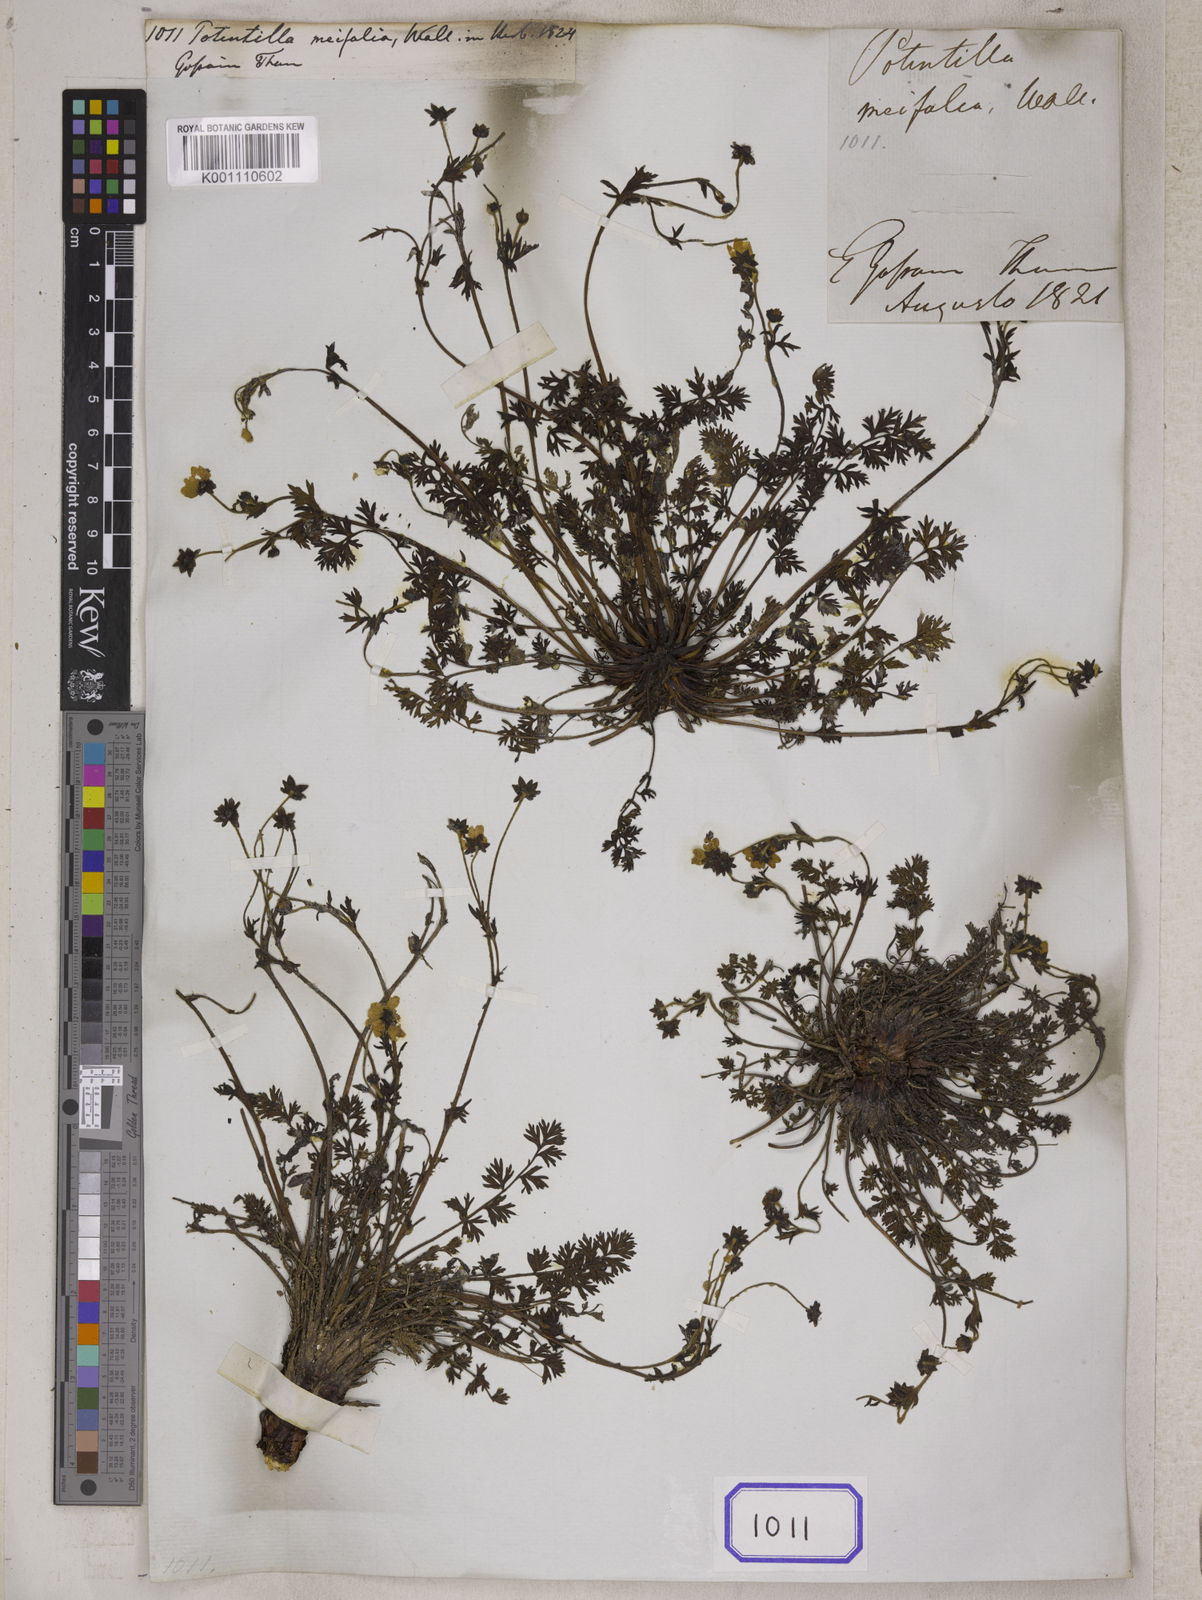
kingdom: Plantae
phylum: Tracheophyta
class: Magnoliopsida
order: Rosales
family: Rosaceae
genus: Potentilla
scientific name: Potentilla
